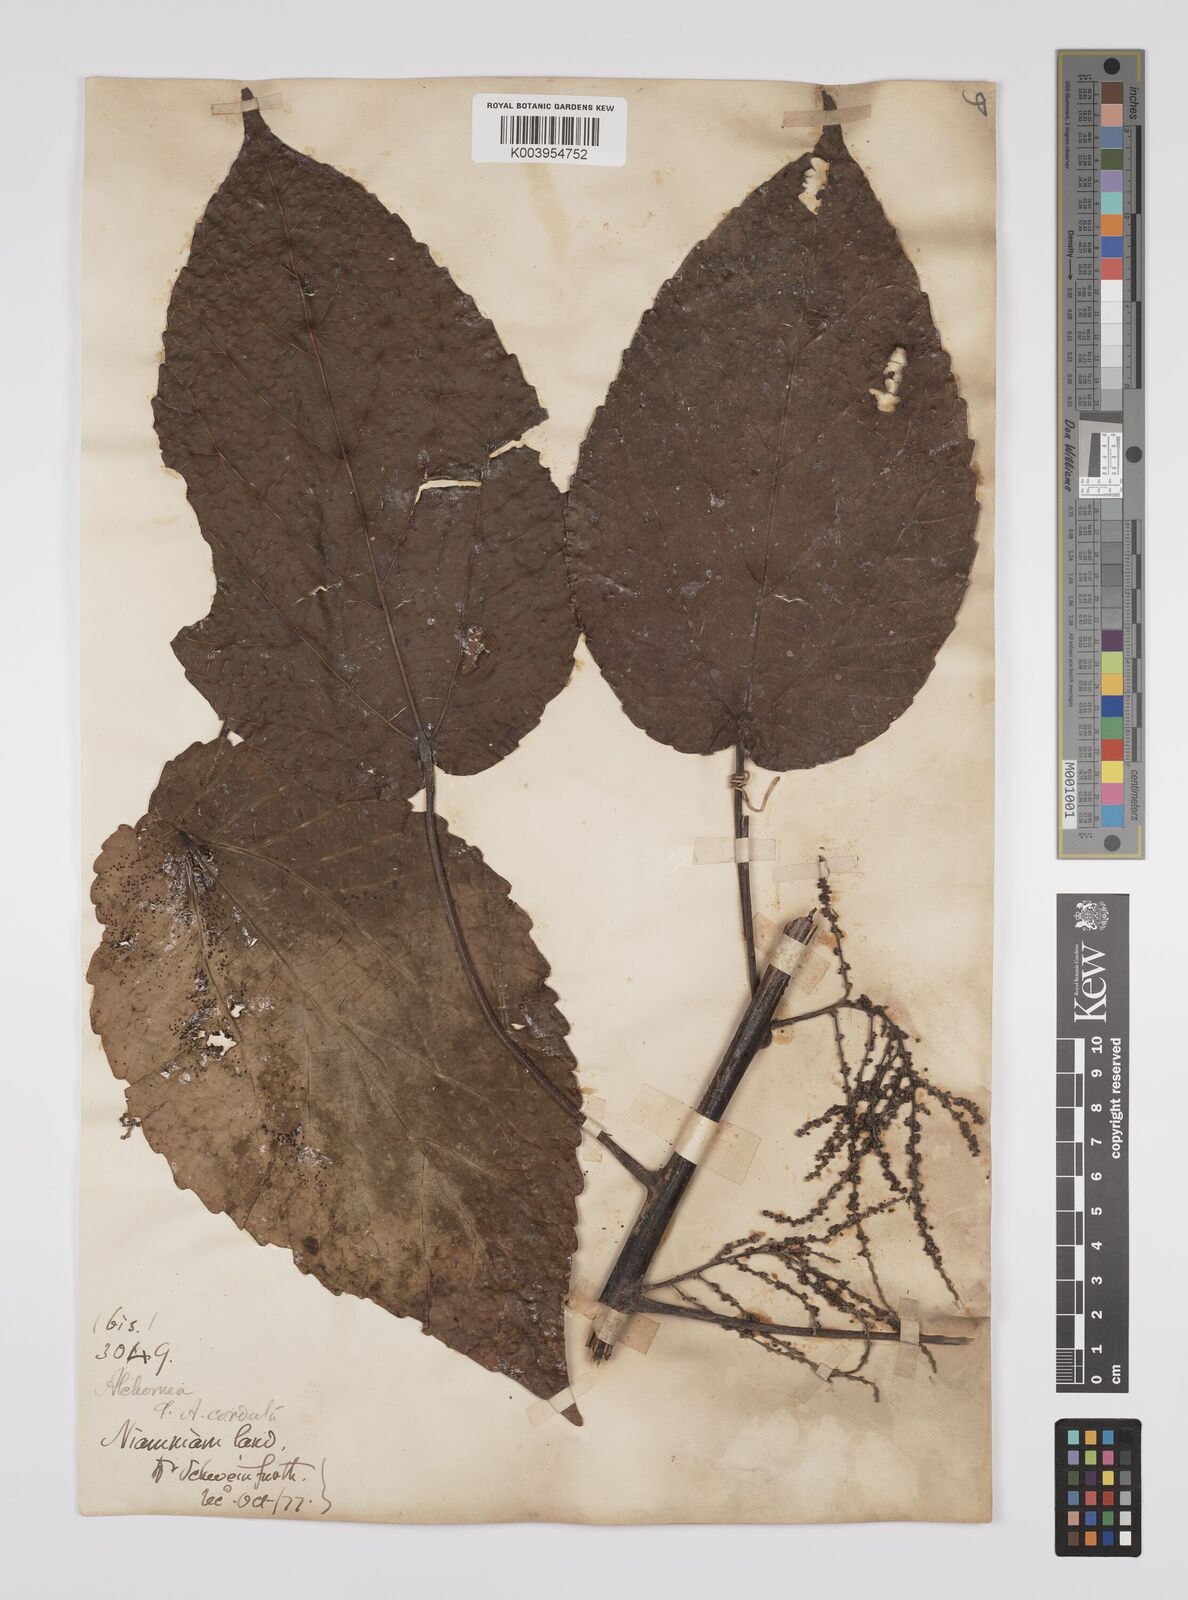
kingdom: Plantae
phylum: Tracheophyta
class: Magnoliopsida
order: Malpighiales
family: Euphorbiaceae
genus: Alchornea
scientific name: Alchornea cordifolia
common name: Christmasbush
